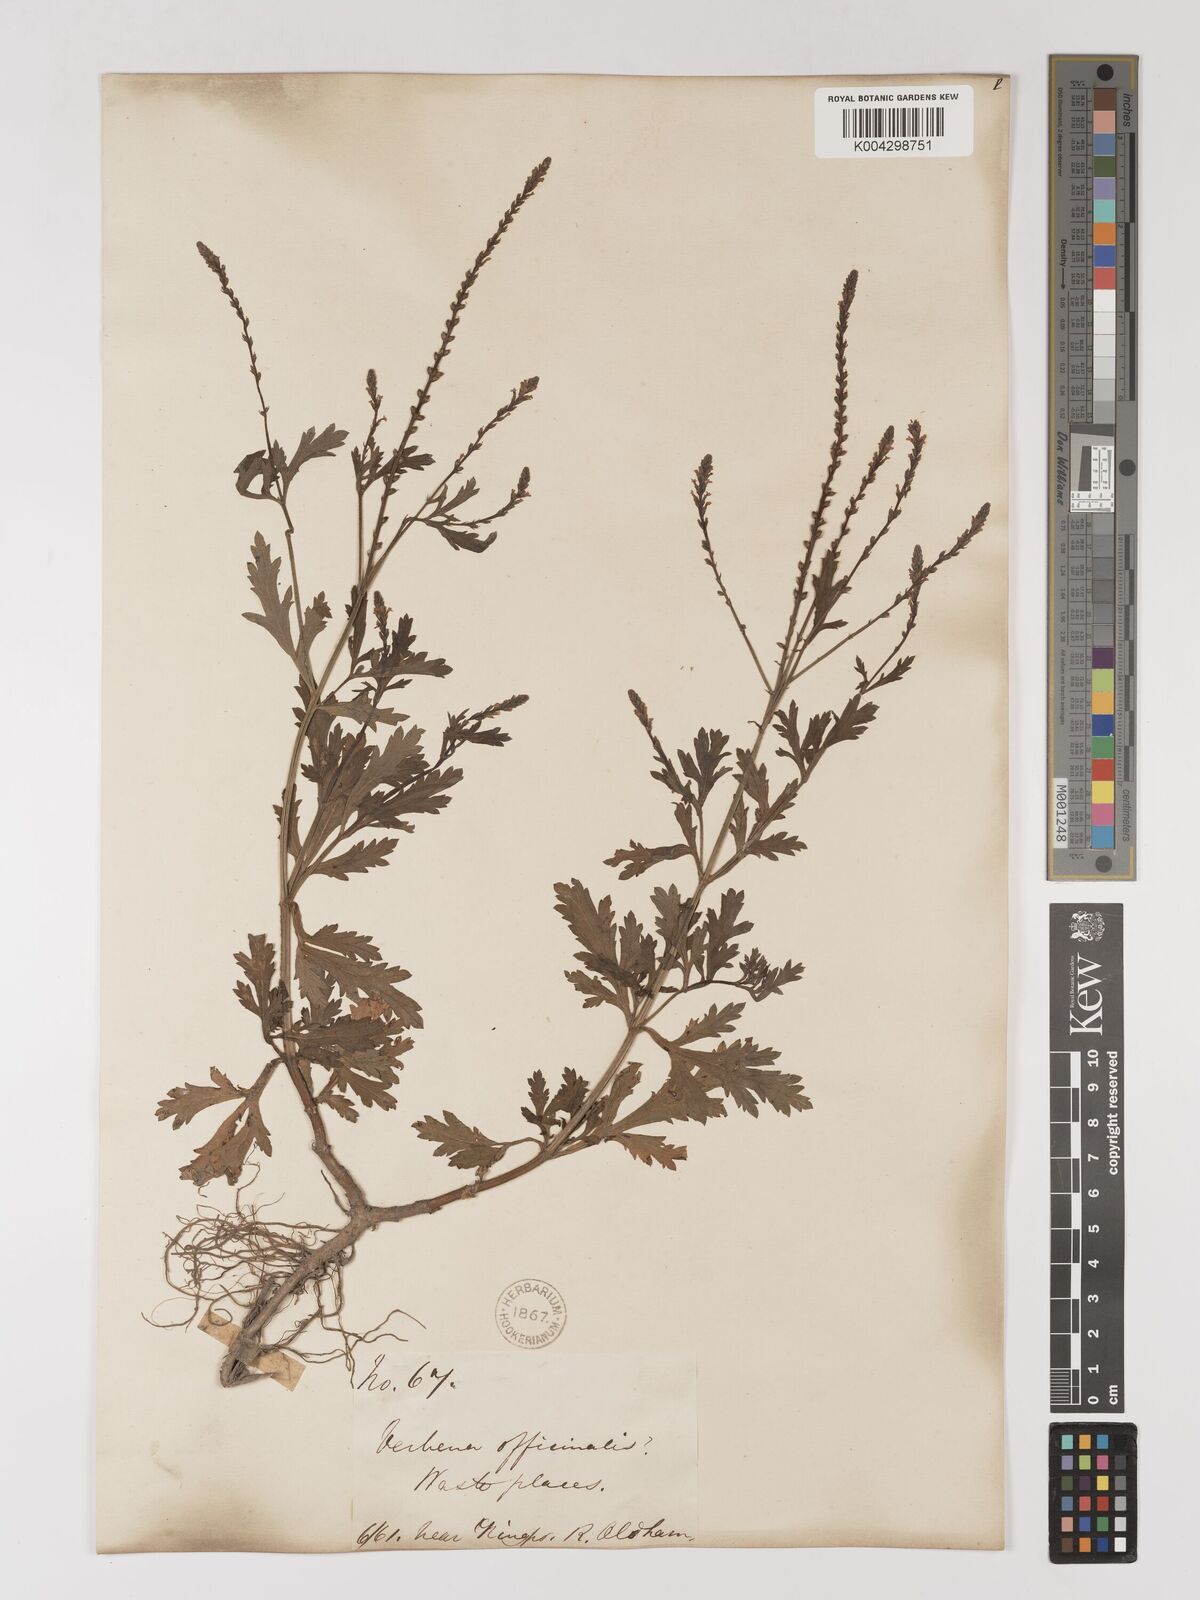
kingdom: Plantae
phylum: Tracheophyta
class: Magnoliopsida
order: Lamiales
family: Verbenaceae
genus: Verbena
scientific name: Verbena officinalis
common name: Vervain
